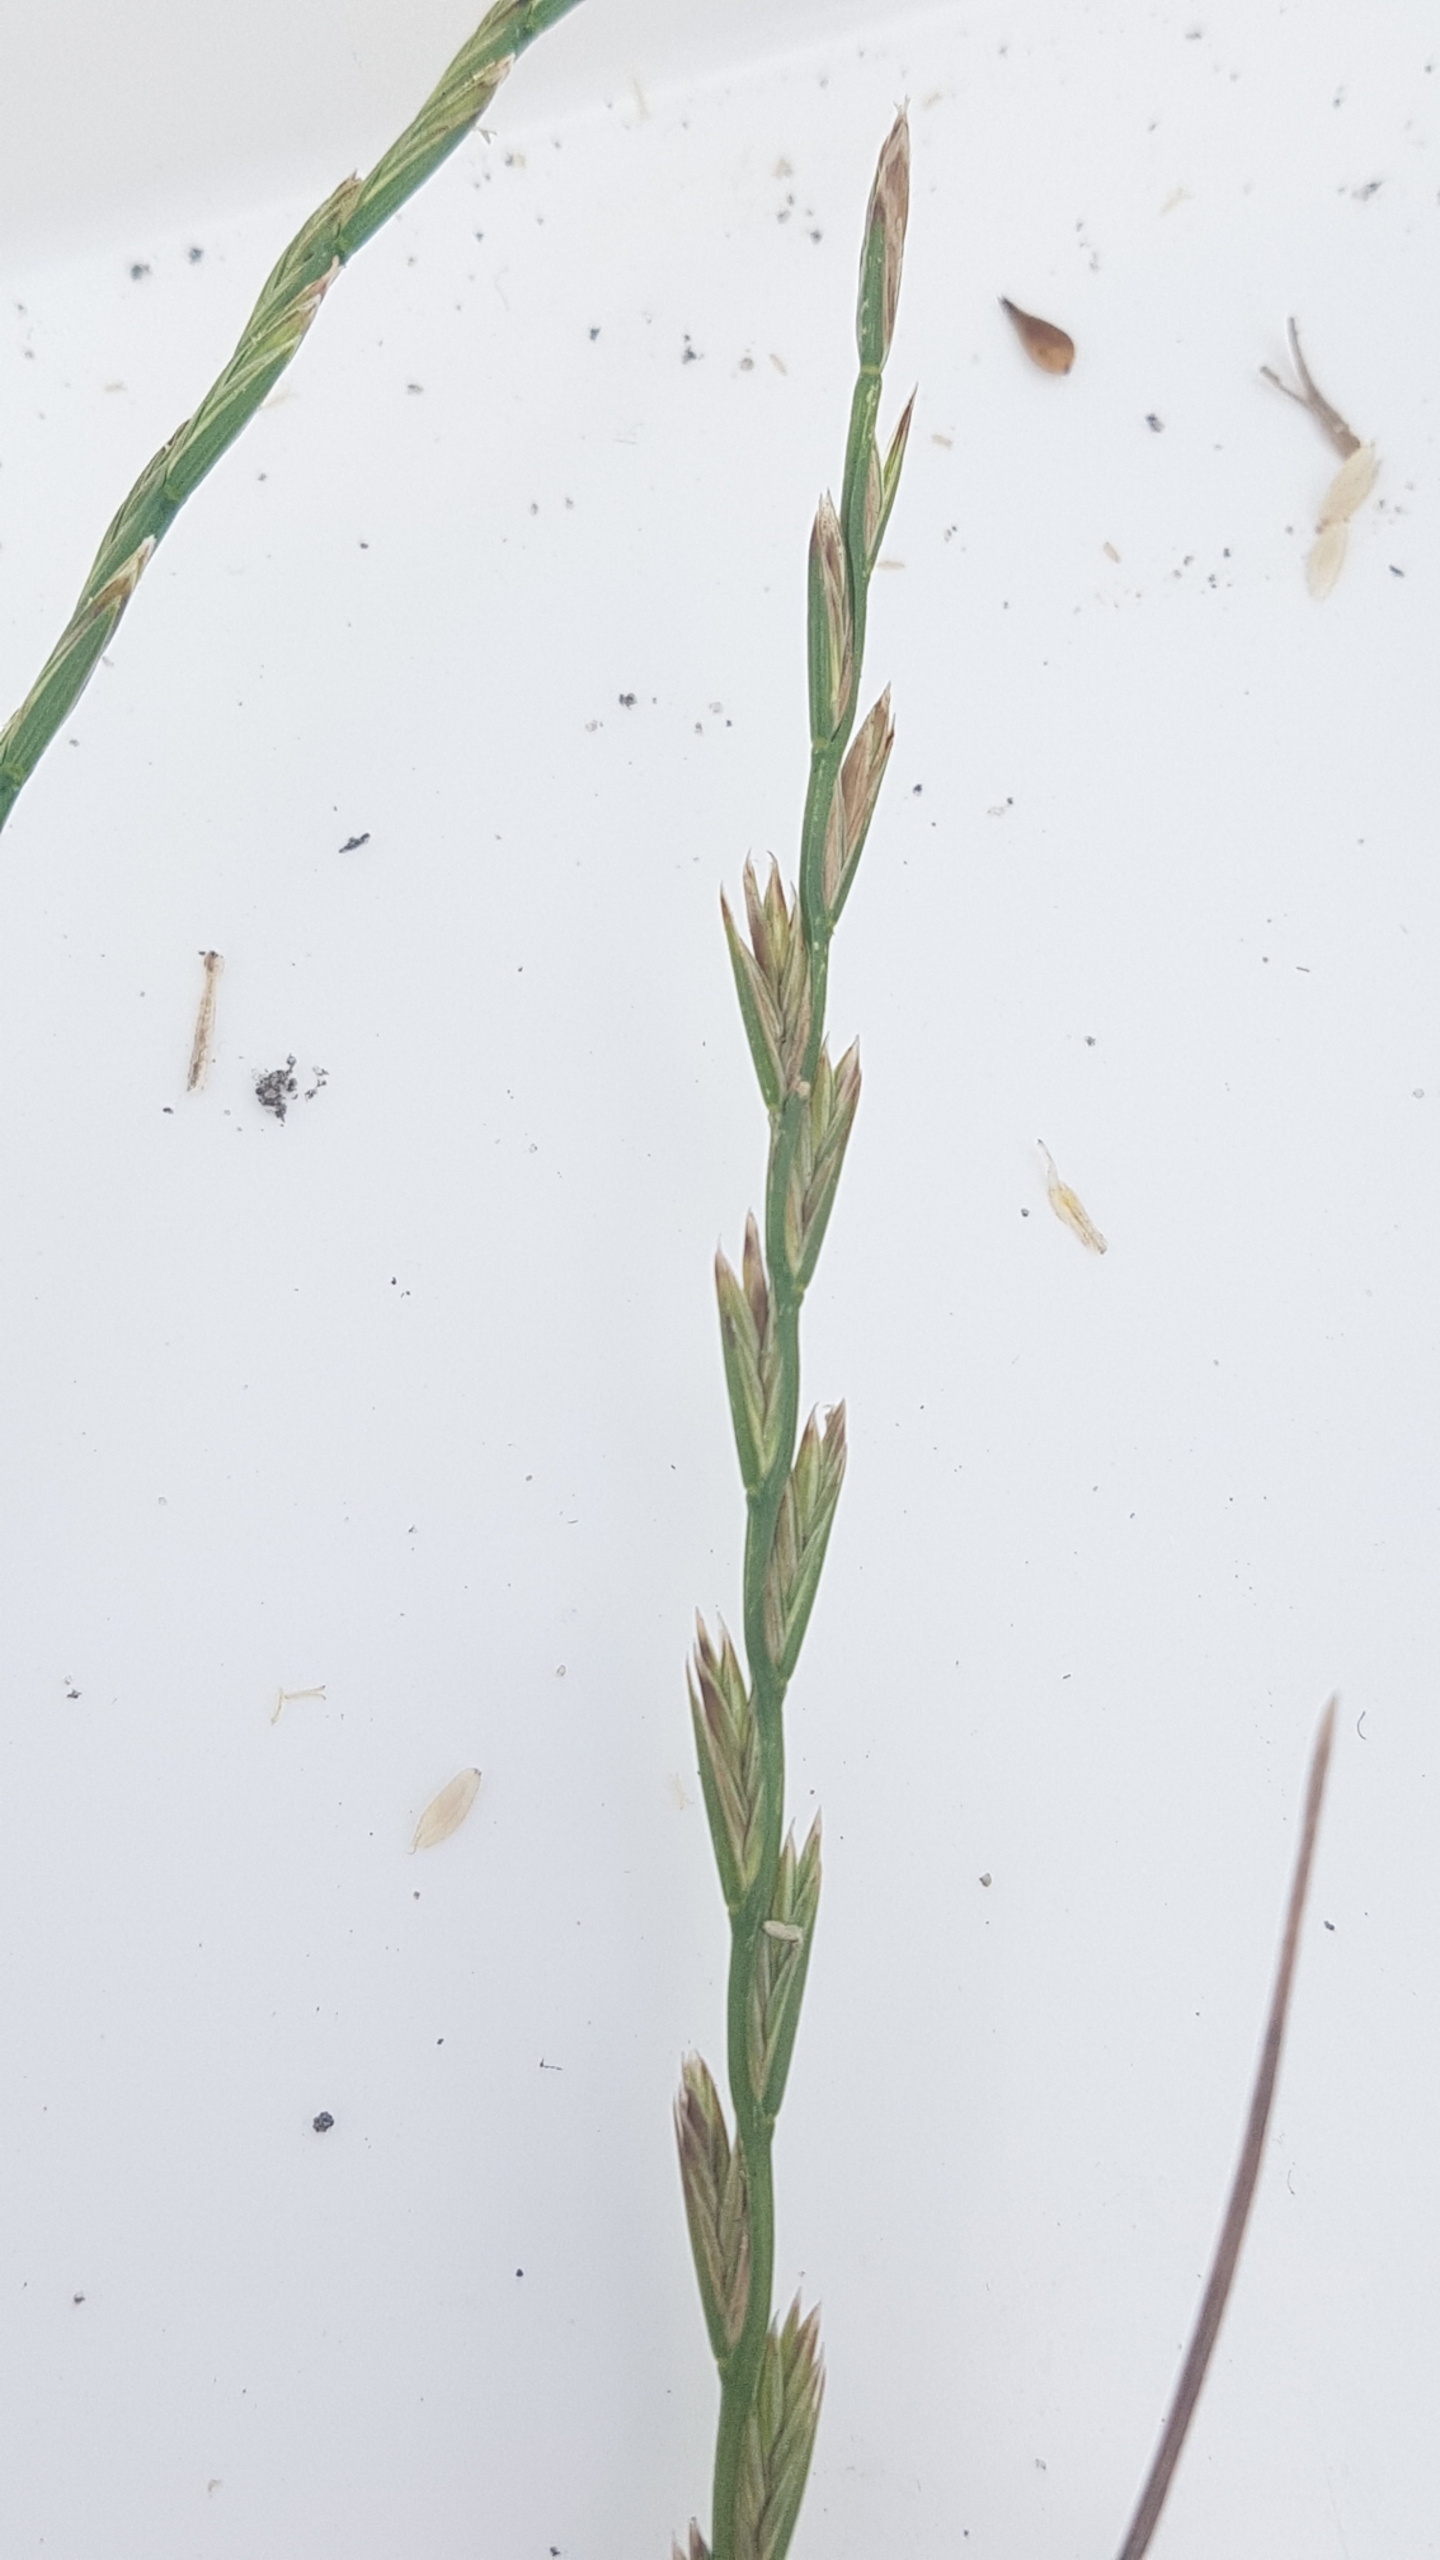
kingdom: Plantae
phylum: Tracheophyta
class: Liliopsida
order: Poales
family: Poaceae
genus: Lolium
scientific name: Lolium perenne
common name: Almindelig rajgræs
